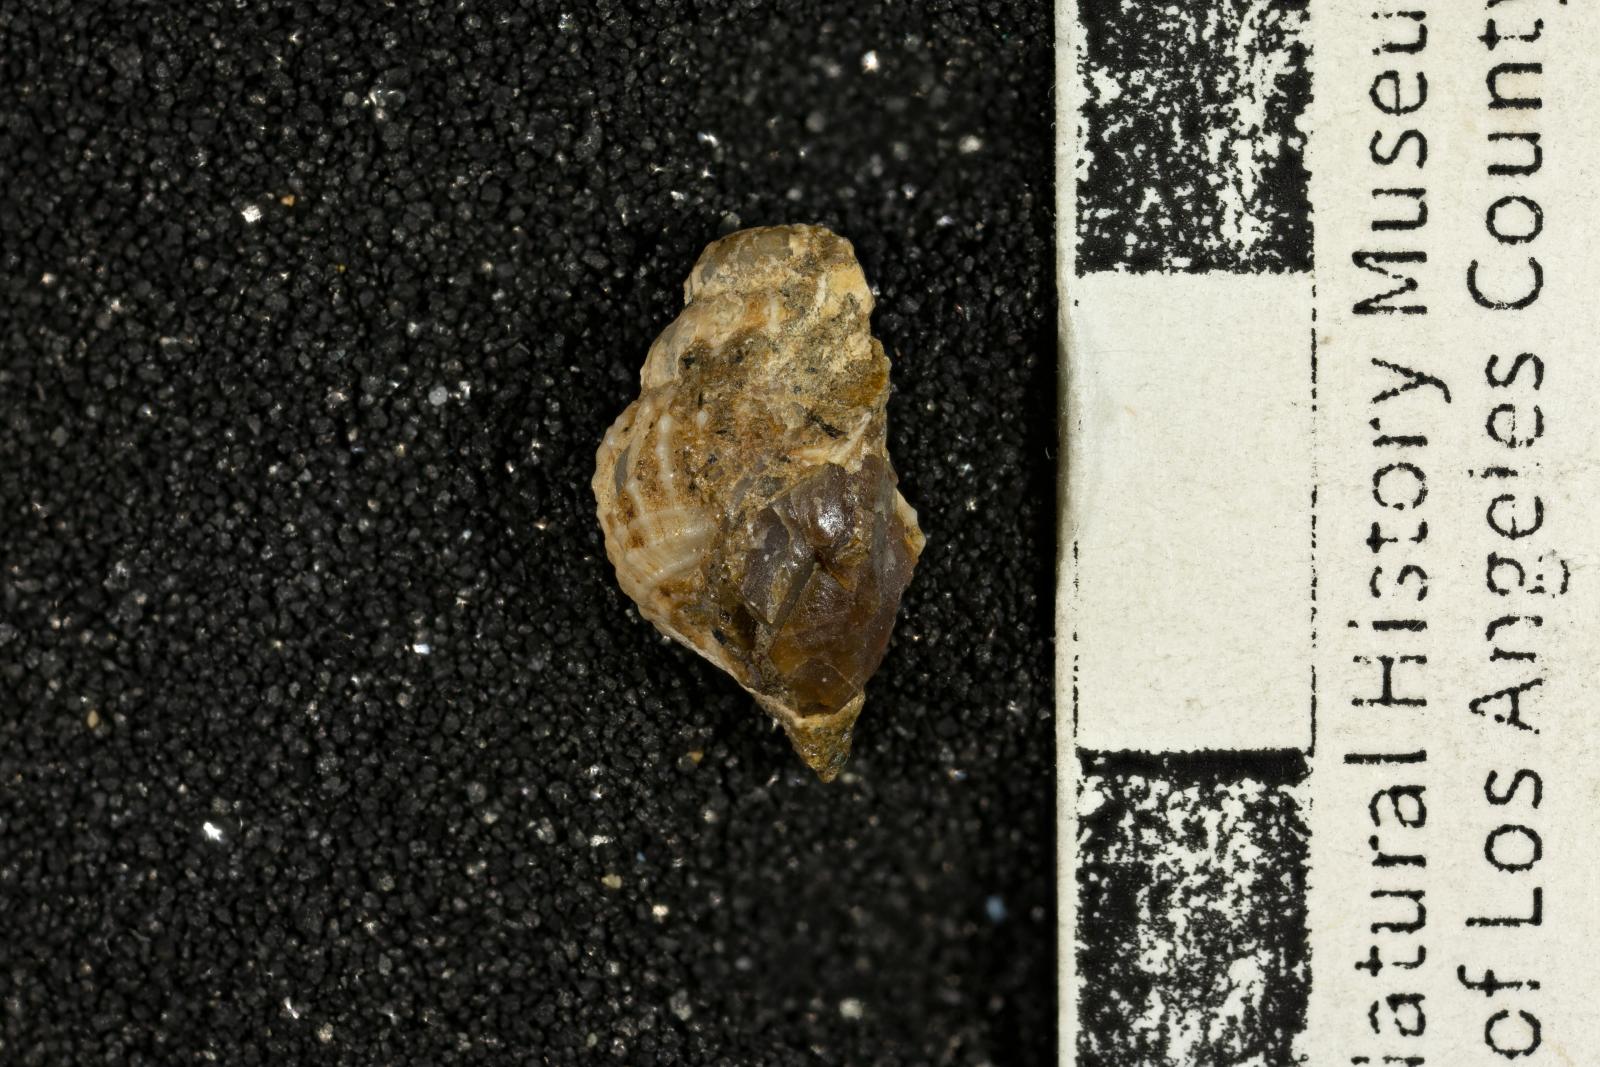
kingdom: Animalia
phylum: Mollusca
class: Gastropoda
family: Cerithiidae
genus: Cerithium
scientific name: Cerithium lallierianum
